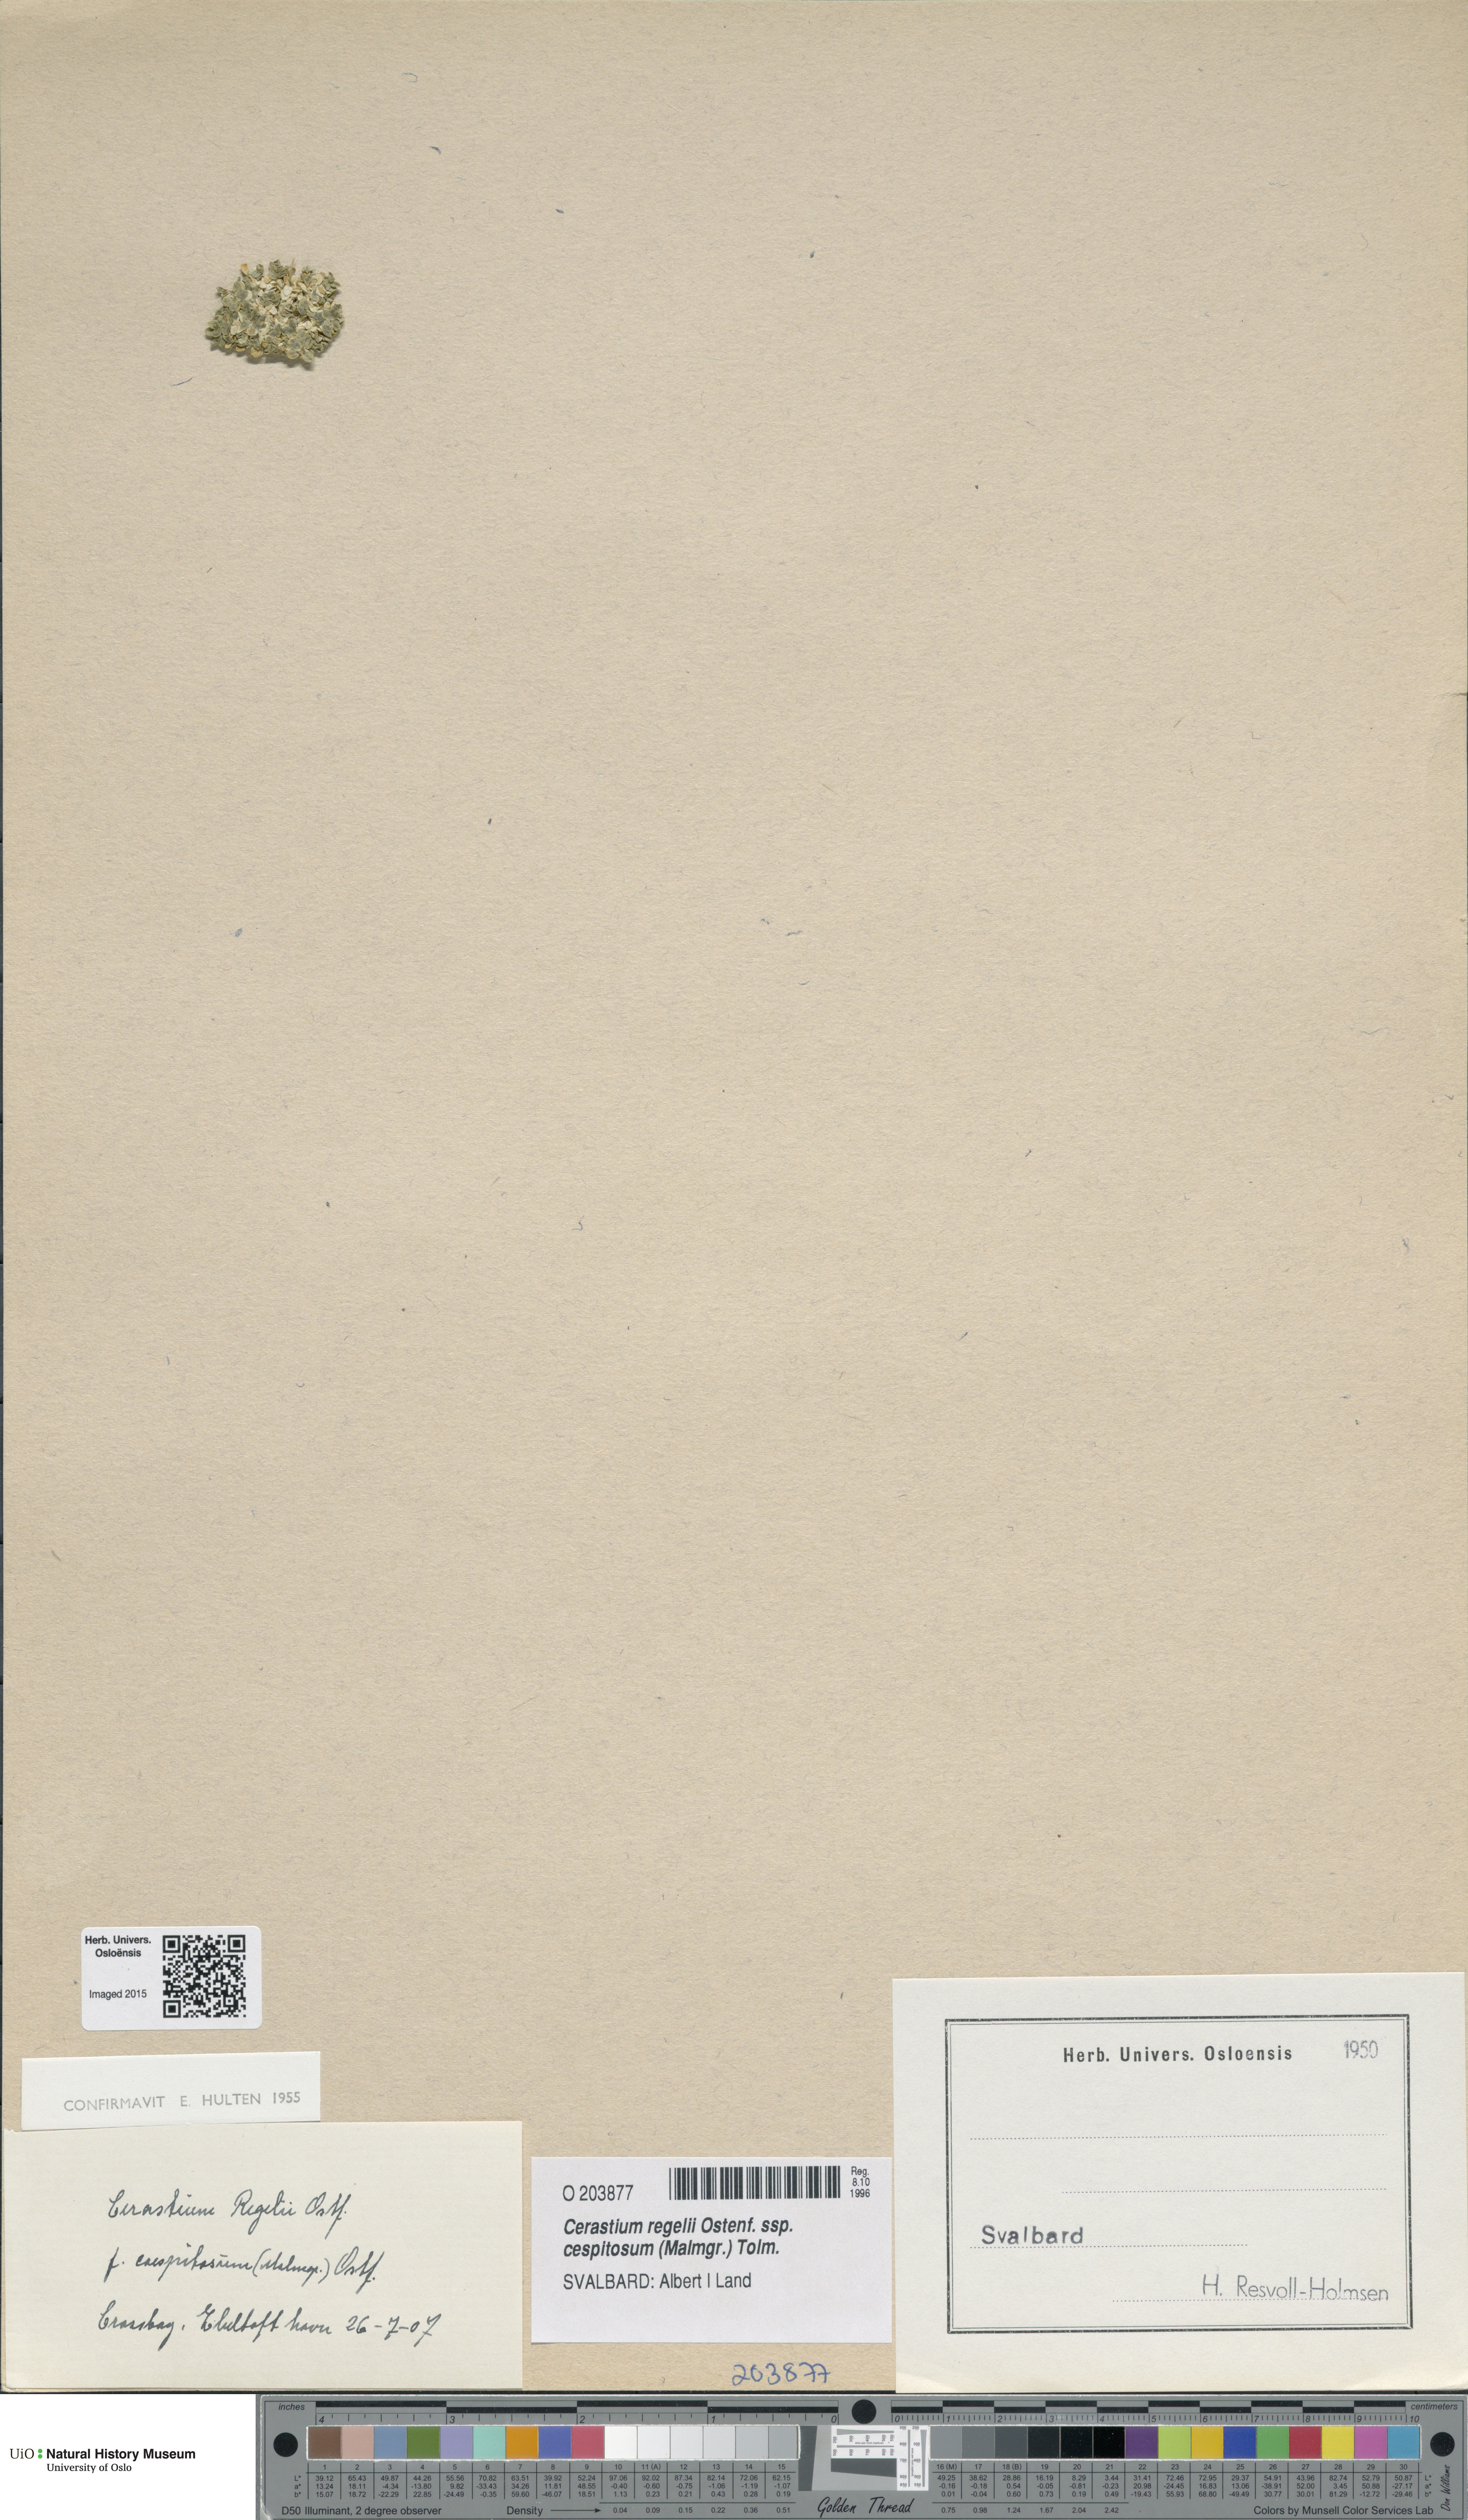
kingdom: Plantae
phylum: Tracheophyta
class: Magnoliopsida
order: Caryophyllales
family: Caryophyllaceae
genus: Cerastium
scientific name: Cerastium regelii
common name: Regel's chickweed
